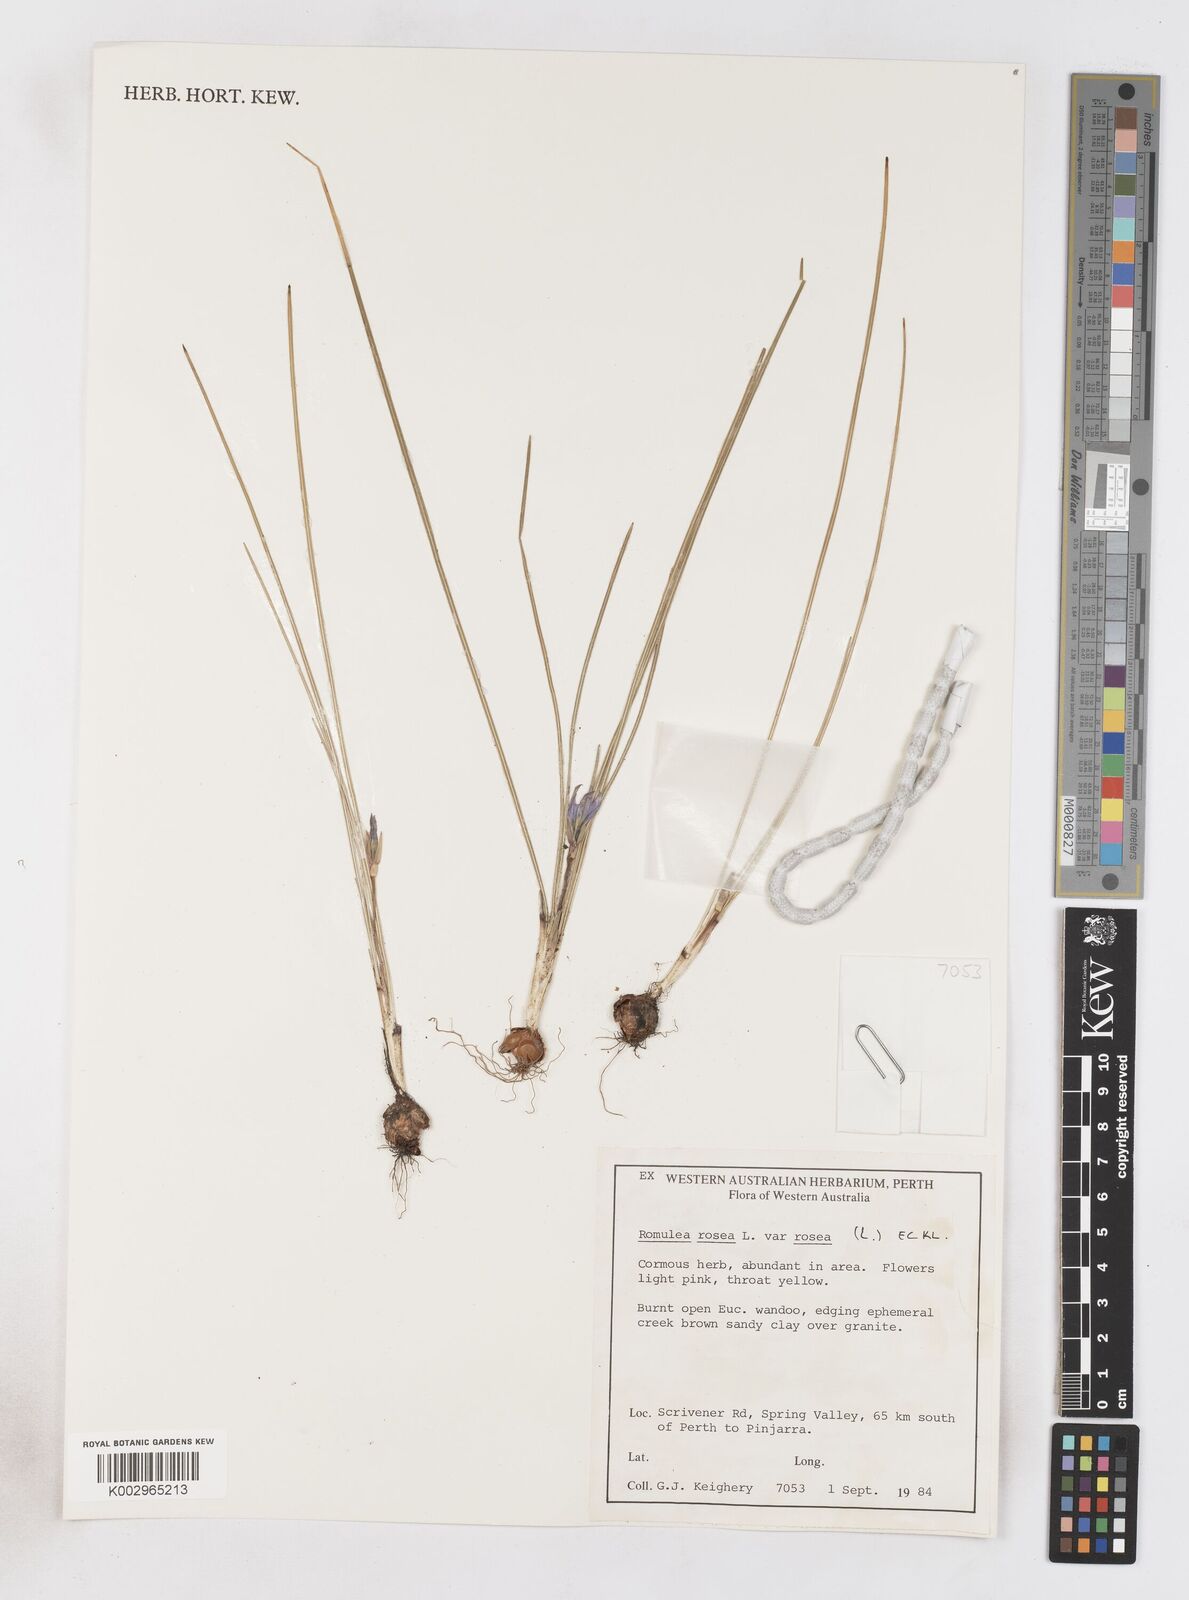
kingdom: Plantae
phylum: Tracheophyta
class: Liliopsida
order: Asparagales
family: Iridaceae
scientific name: Iridaceae
